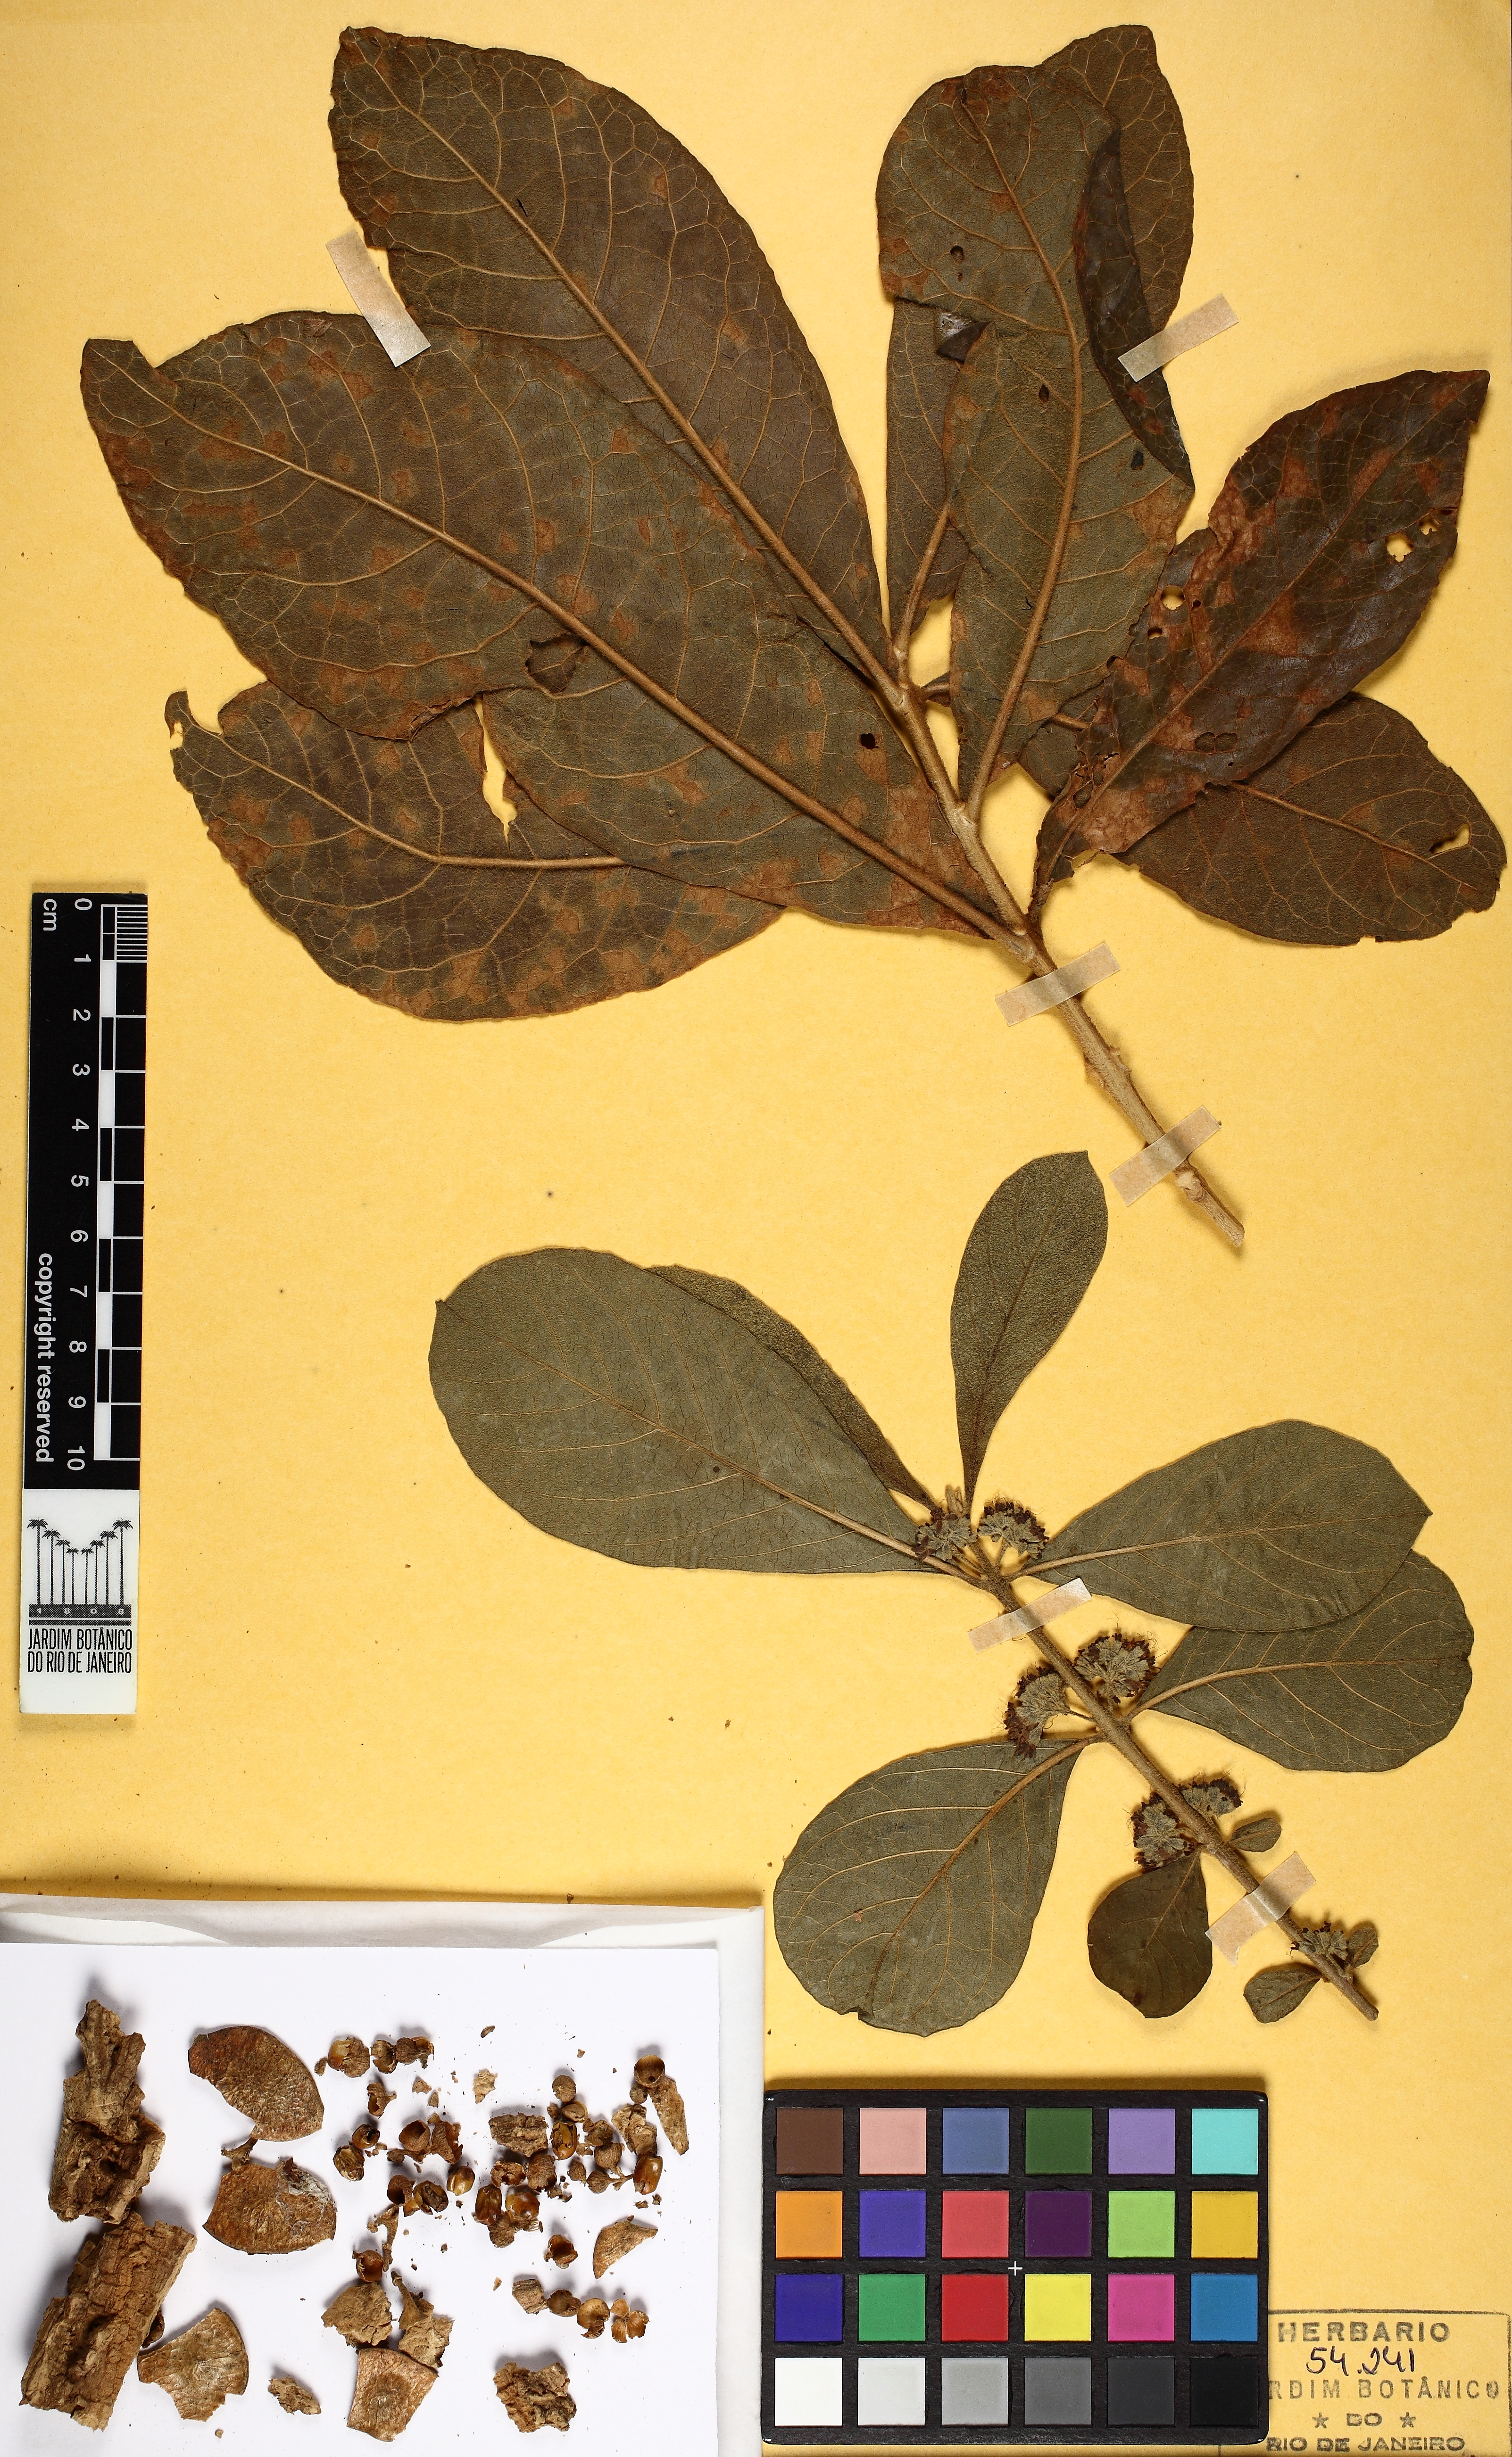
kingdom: Plantae
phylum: Tracheophyta
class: Magnoliopsida
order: Lamiales
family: Lamiaceae
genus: Aegiphila
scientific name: Aegiphila paraguariensis
